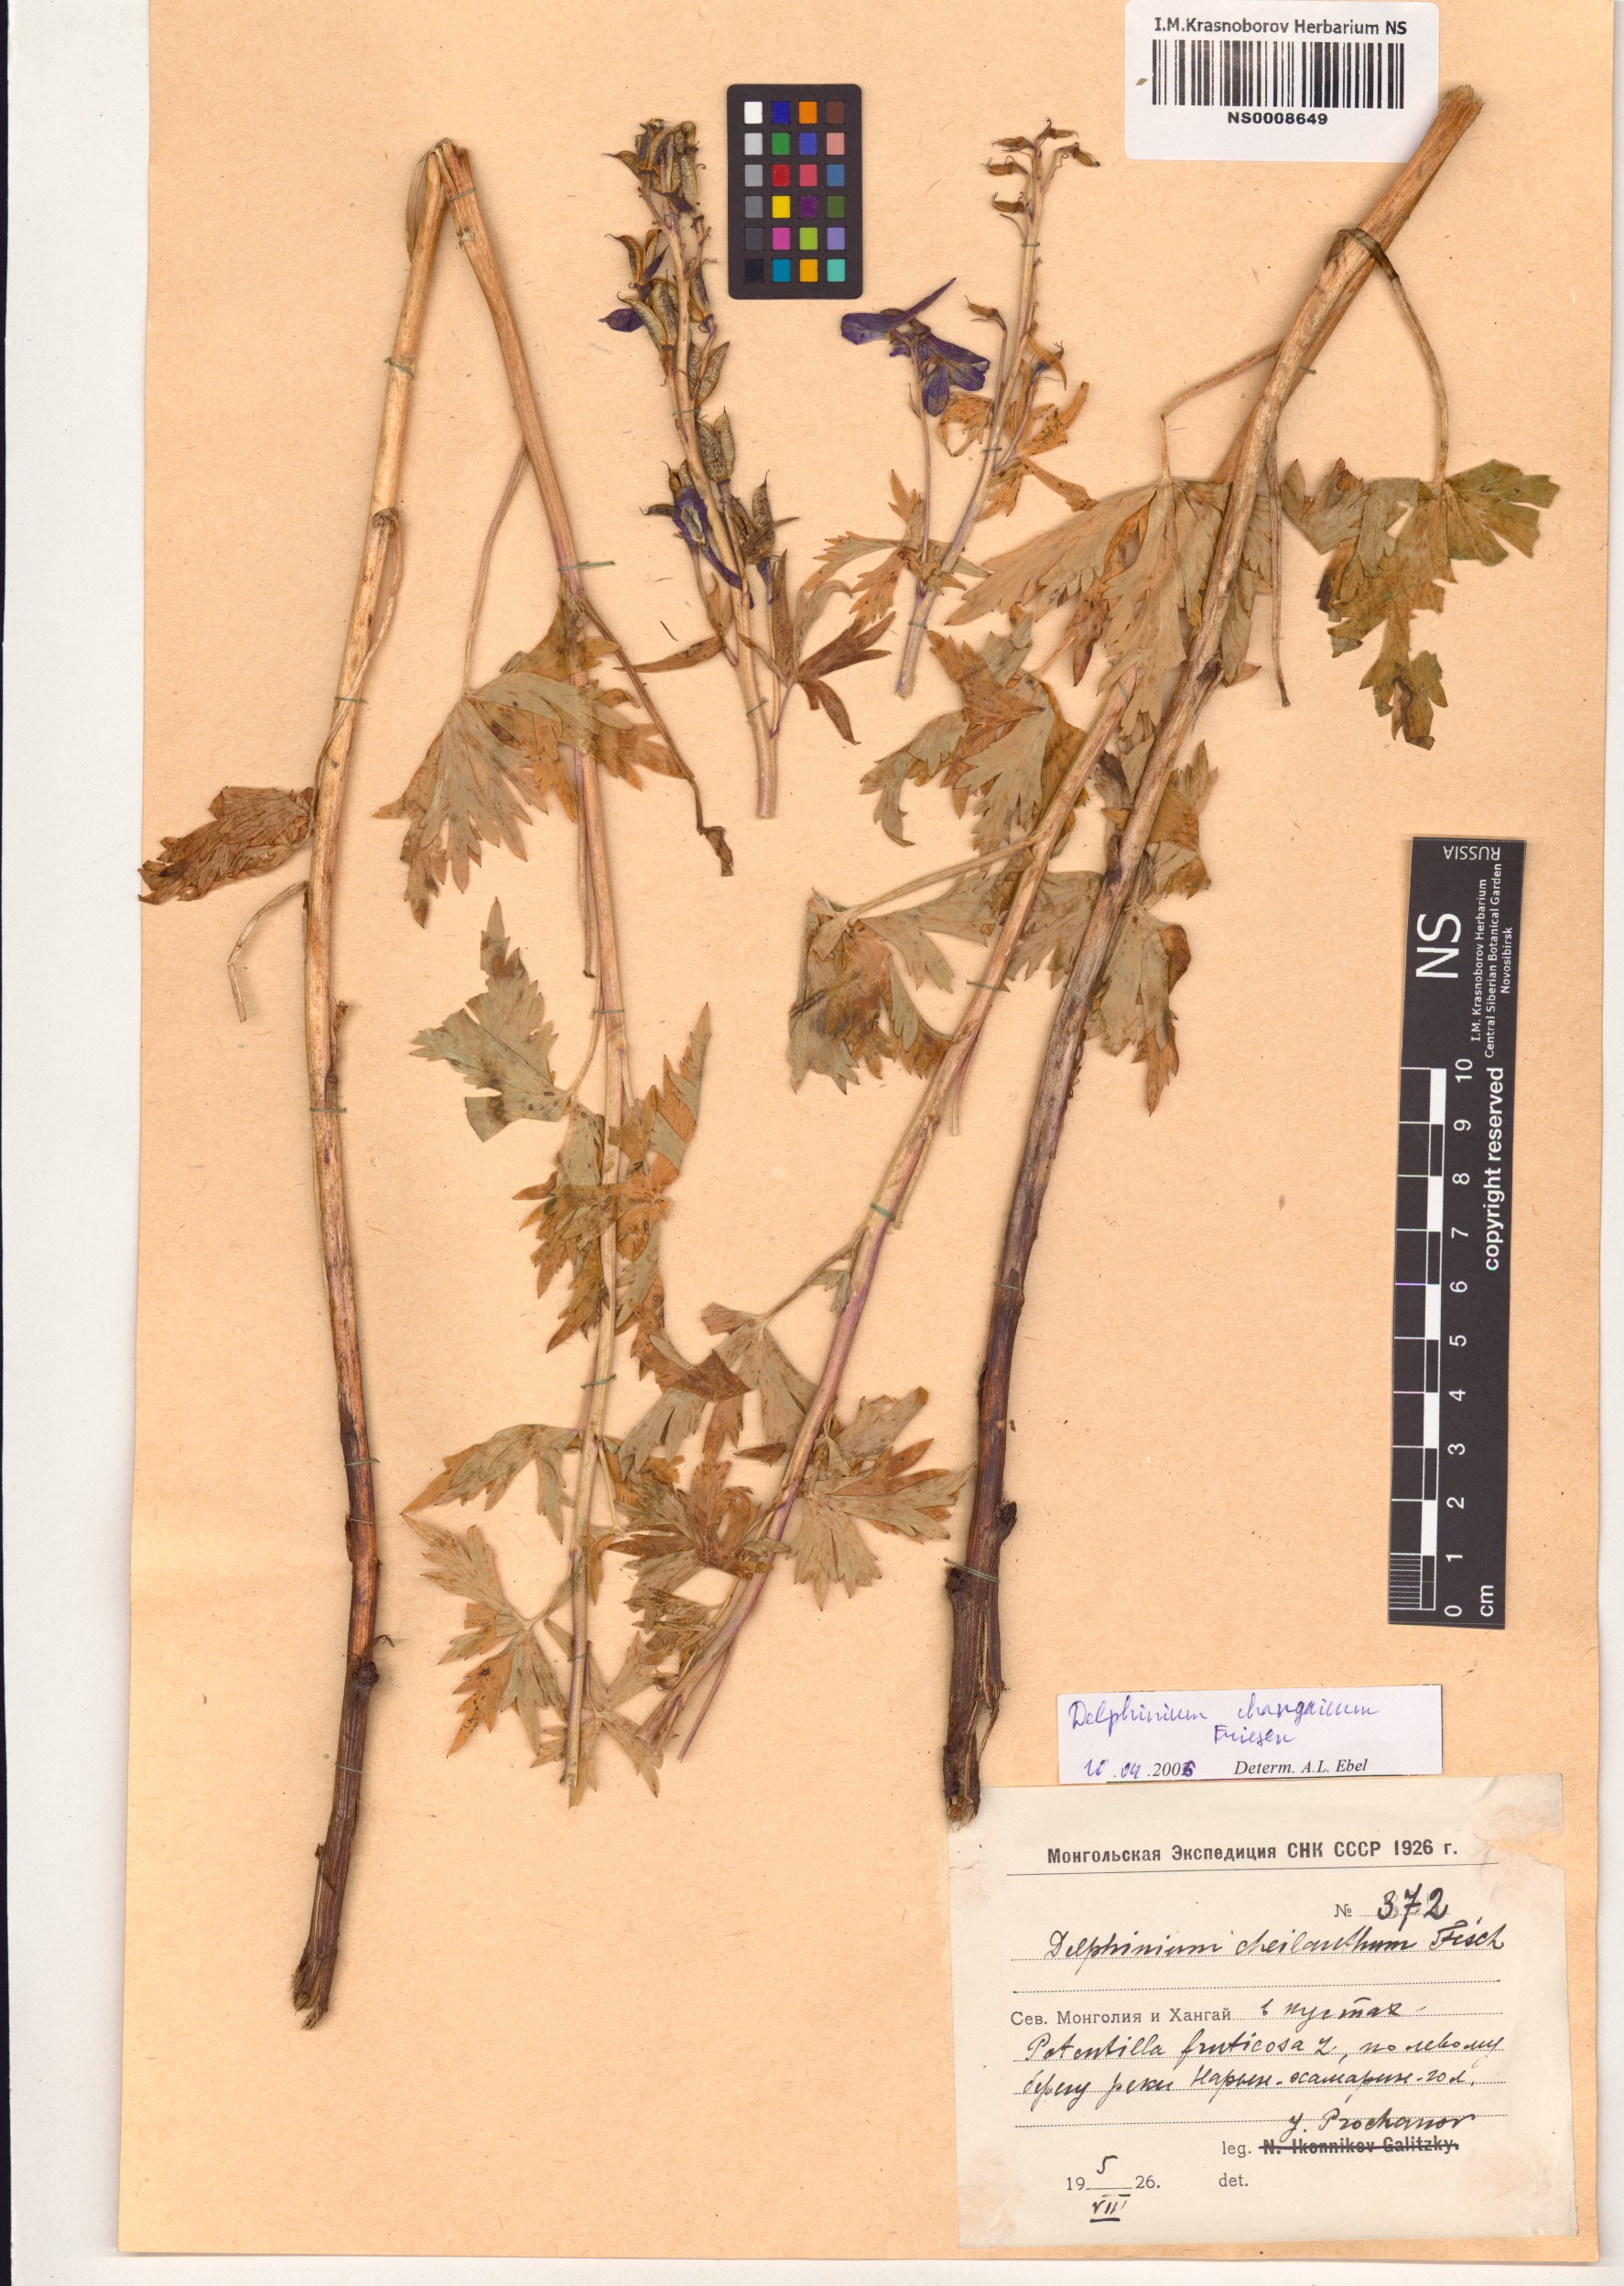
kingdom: Plantae
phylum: Tracheophyta
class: Magnoliopsida
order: Ranunculales
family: Ranunculaceae
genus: Delphinium
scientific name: Delphinium changaicum
